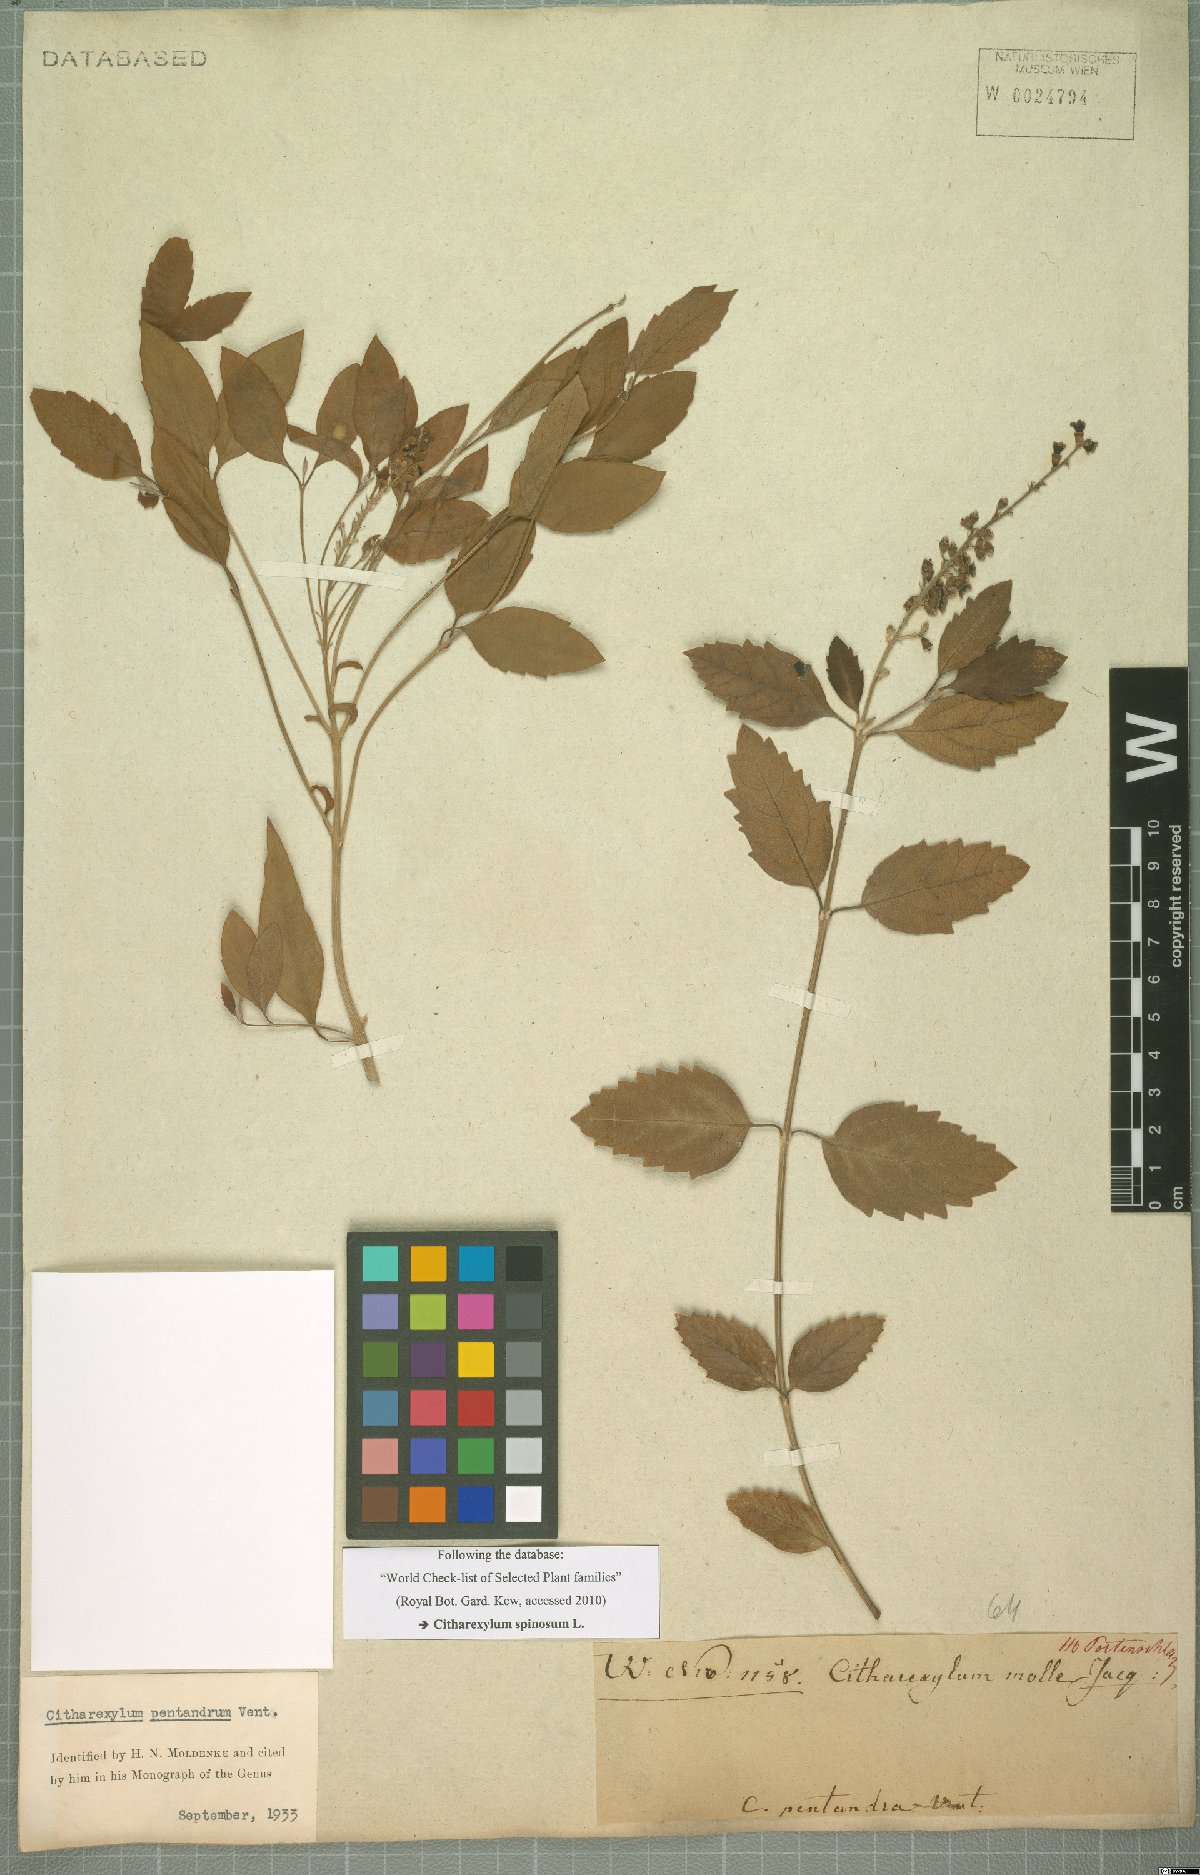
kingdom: Plantae
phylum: Tracheophyta
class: Magnoliopsida
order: Lamiales
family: Verbenaceae
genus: Citharexylum
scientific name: Citharexylum spinosum
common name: Fiddlewood
